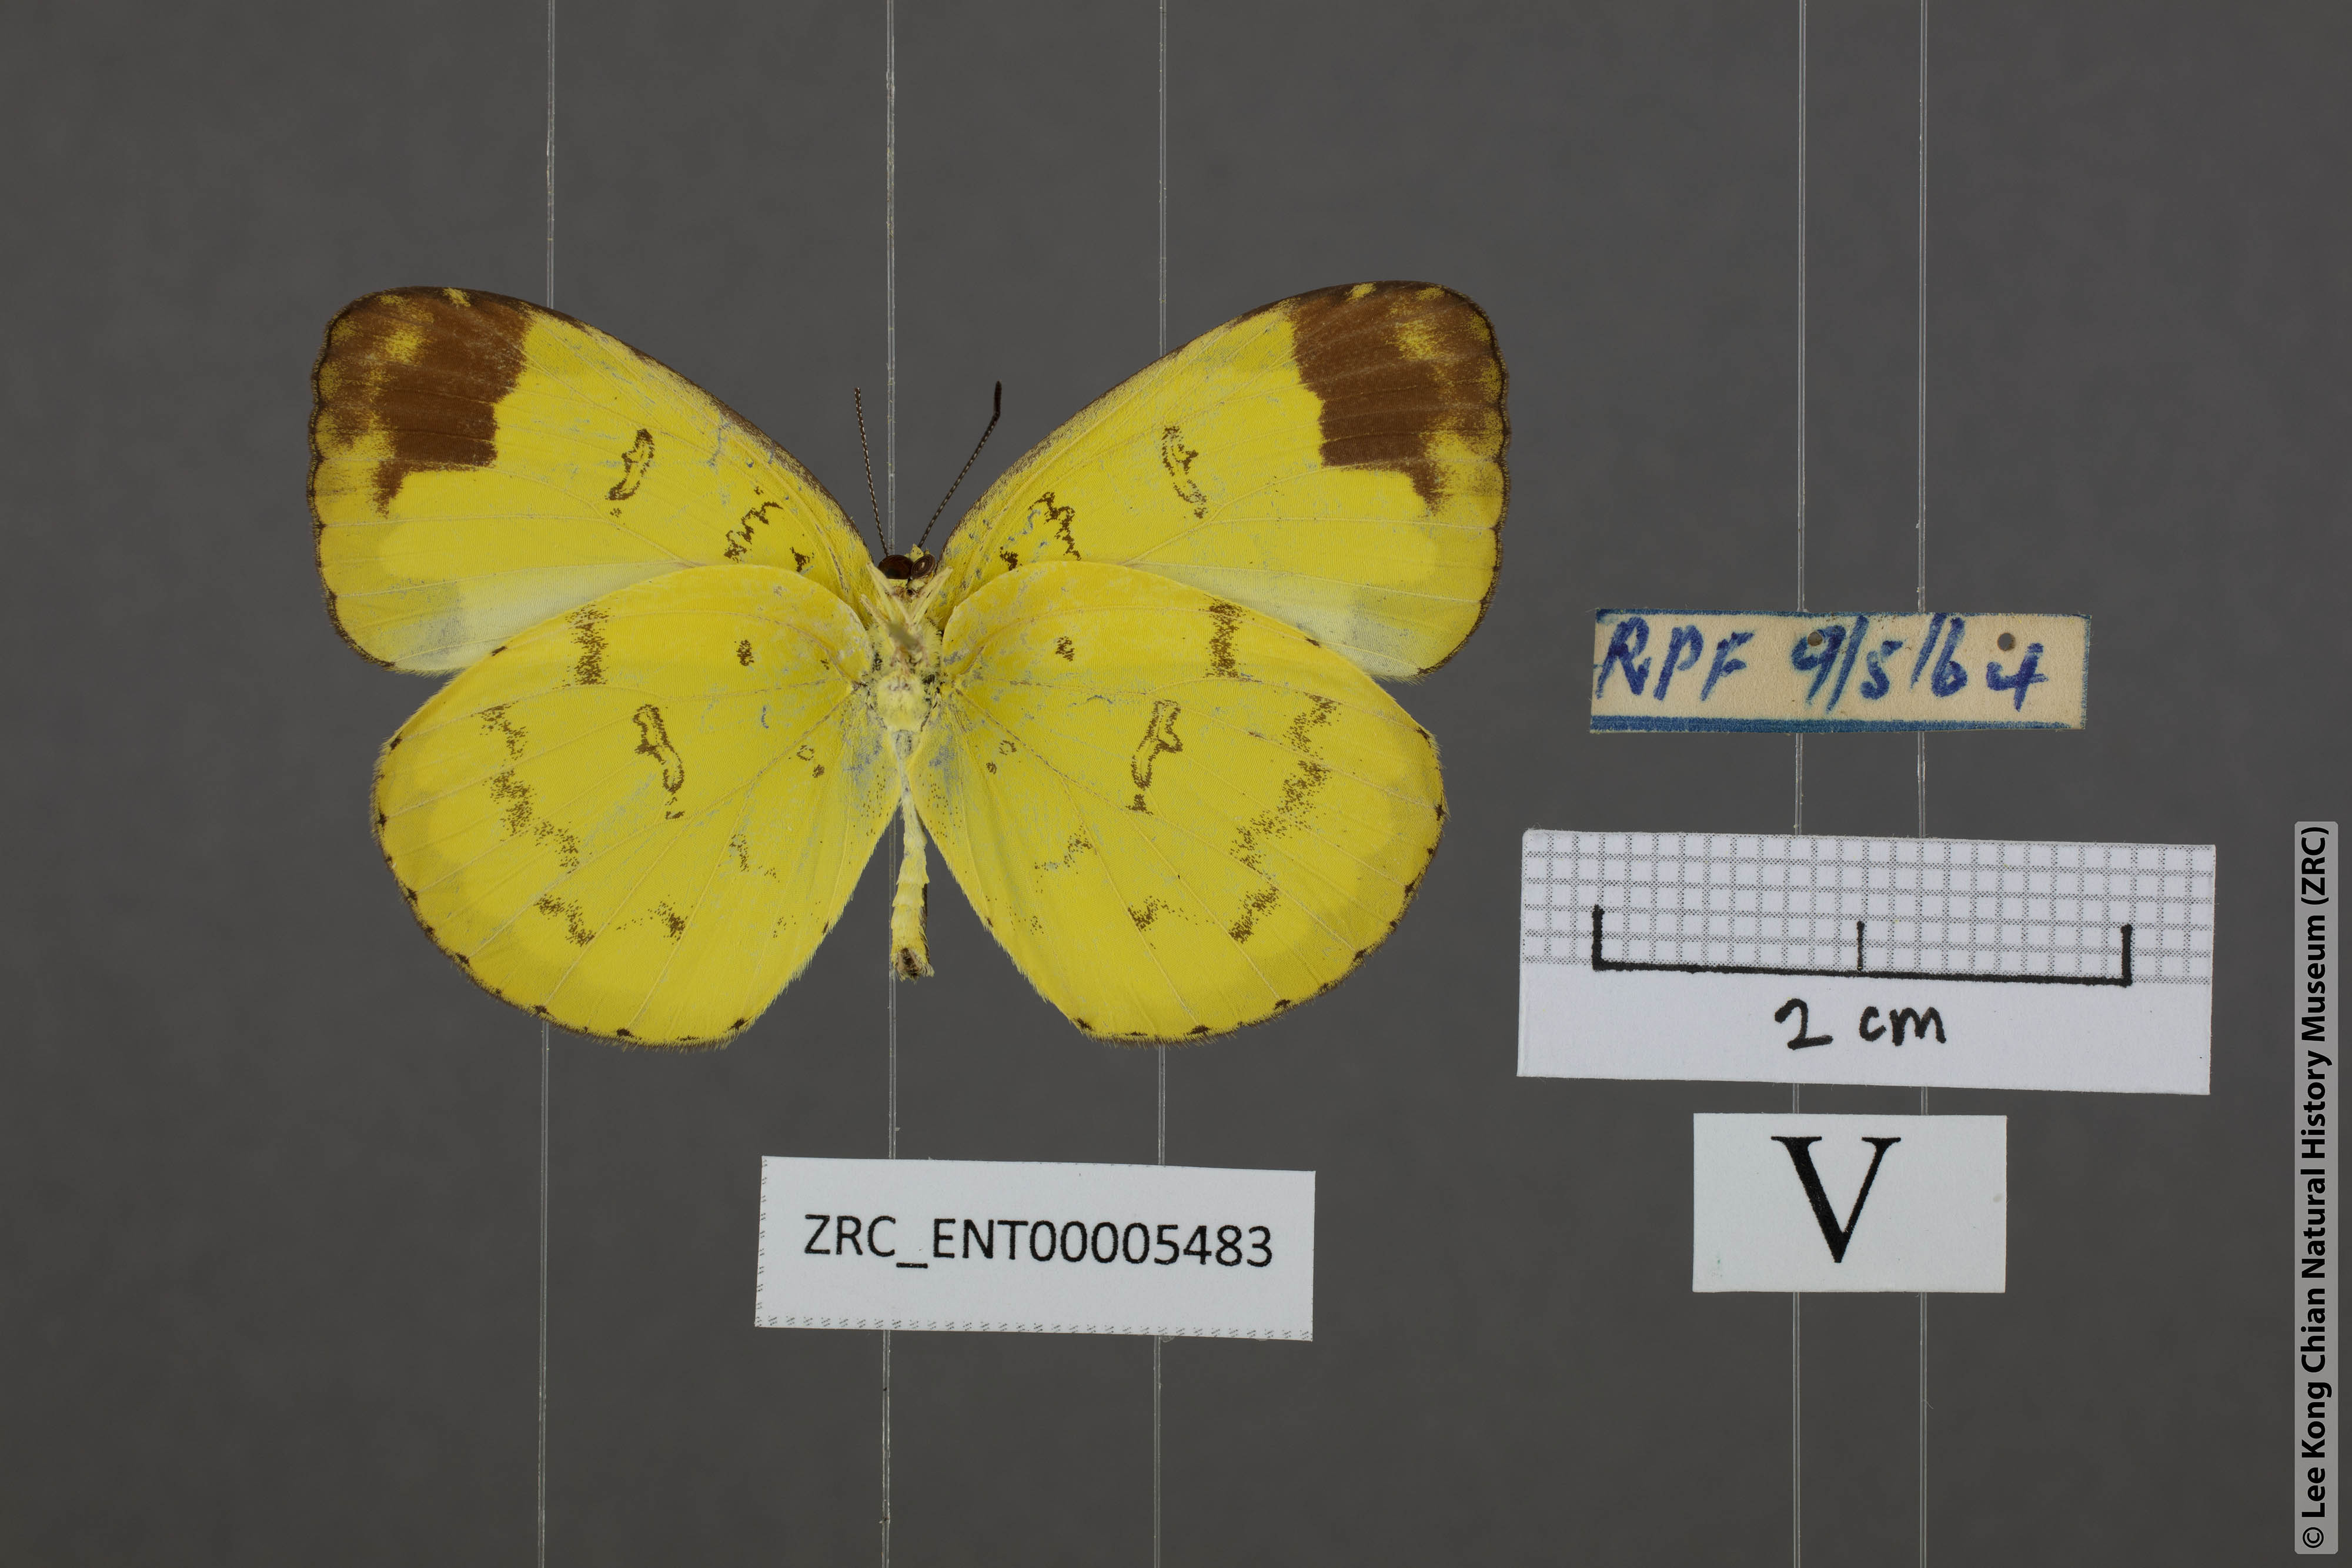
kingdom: Animalia
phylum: Arthropoda
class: Insecta
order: Lepidoptera
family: Pieridae
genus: Eurema
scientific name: Eurema simulatrix
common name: Hill grass yellow
